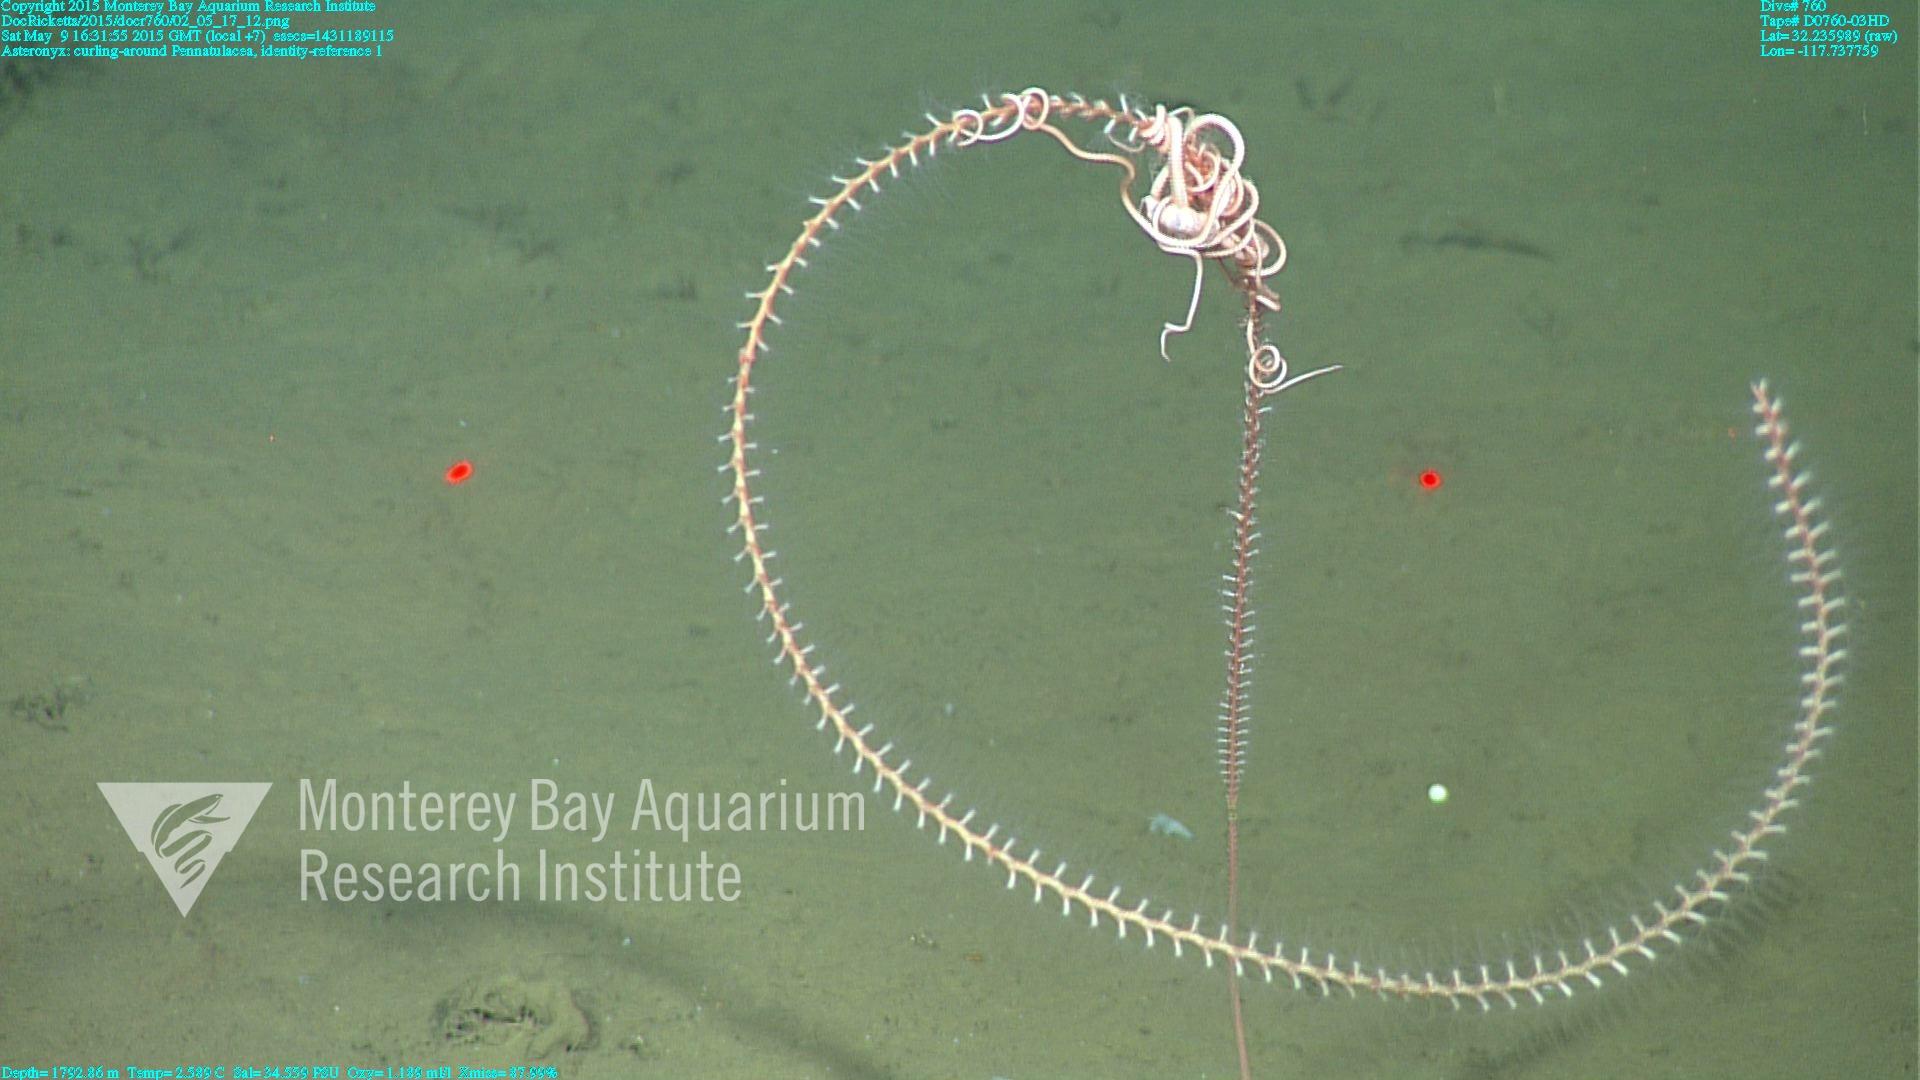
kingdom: Animalia
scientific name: Animalia
